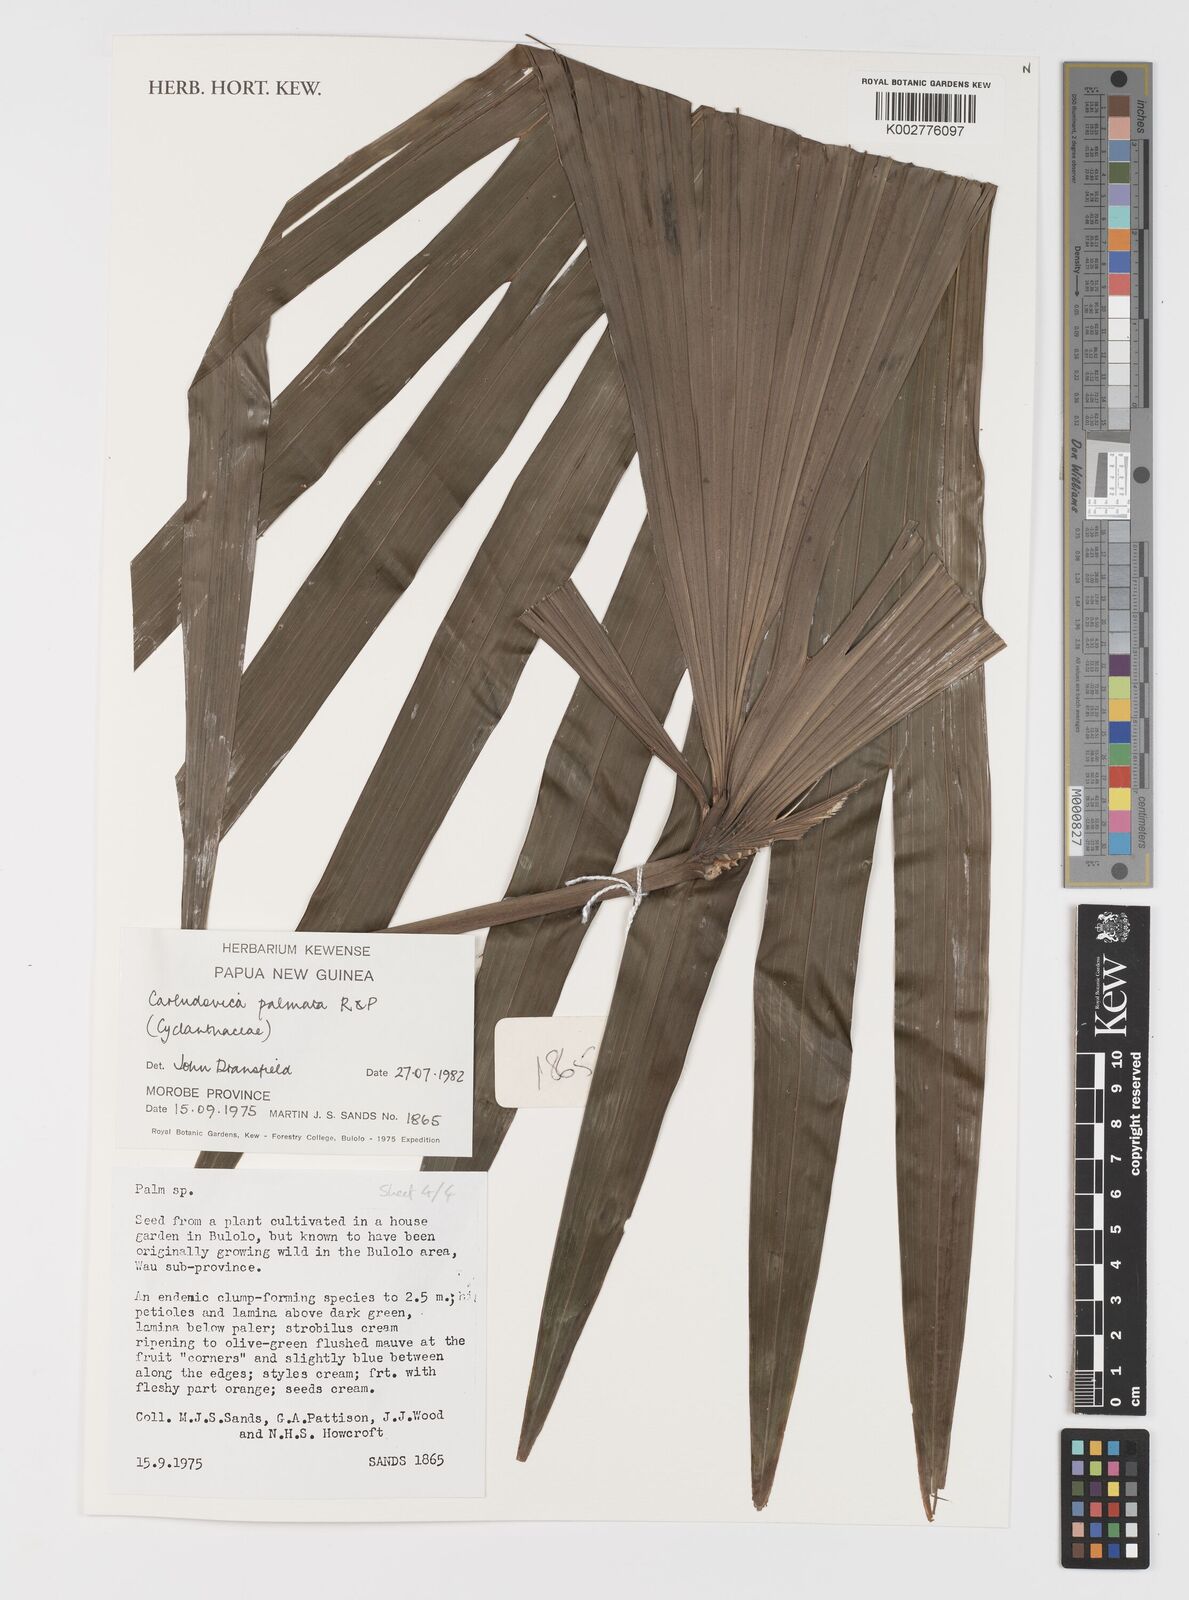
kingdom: Plantae
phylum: Tracheophyta
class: Liliopsida
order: Pandanales
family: Cyclanthaceae
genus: Carludovica
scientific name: Carludovica palmata
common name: Panama hat plant
